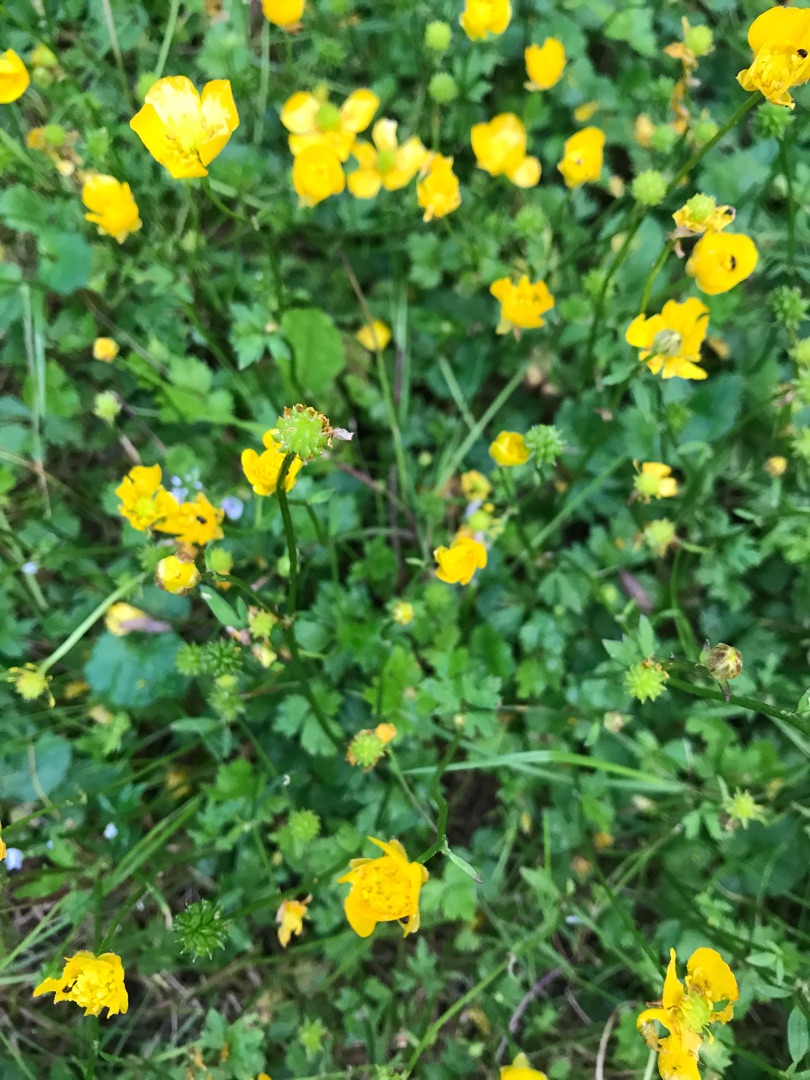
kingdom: Plantae
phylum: Tracheophyta
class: Magnoliopsida
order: Ranunculales
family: Ranunculaceae
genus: Ranunculus
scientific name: Ranunculus repens
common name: Lav ranunkel
